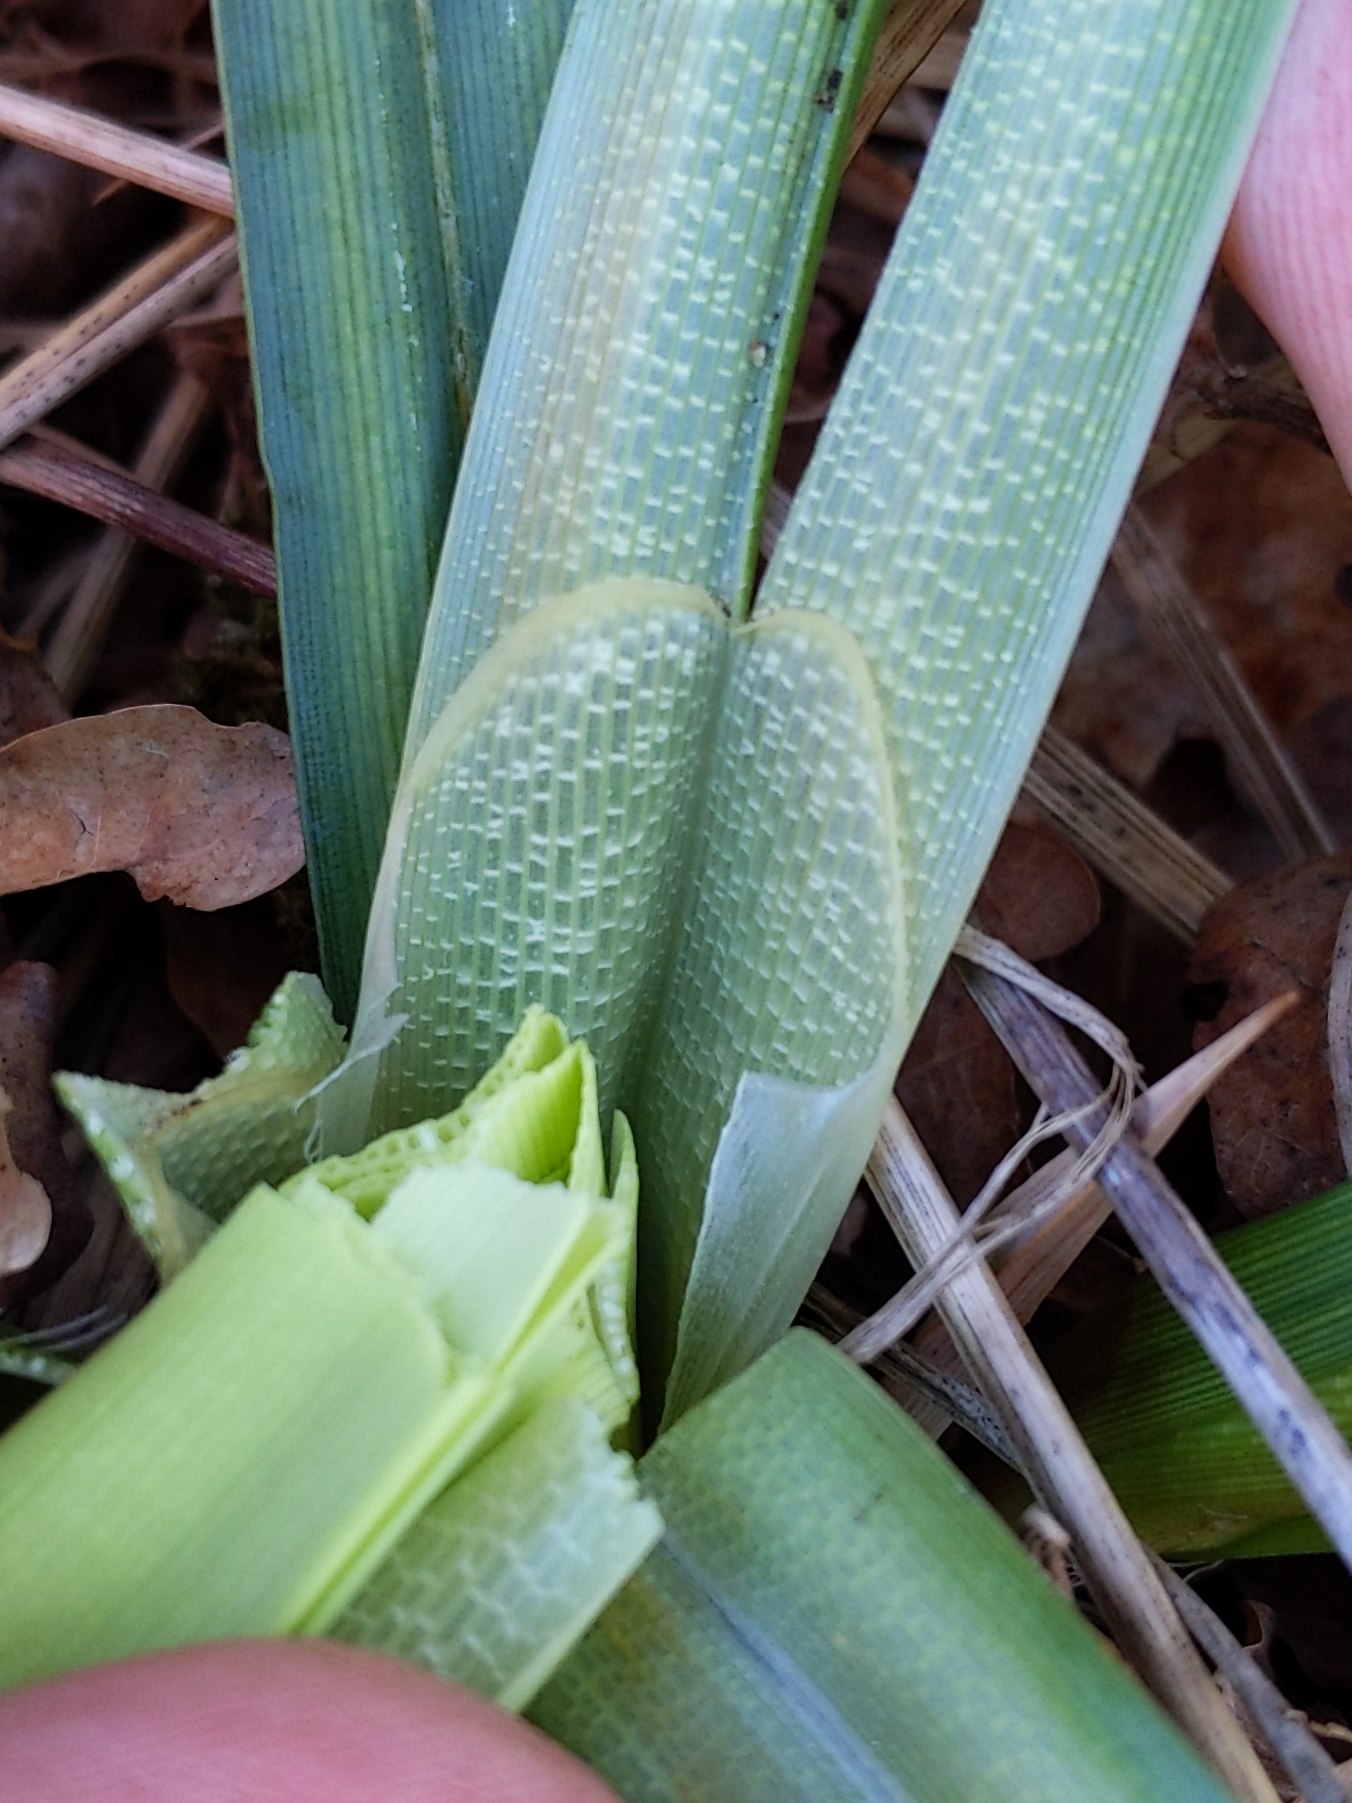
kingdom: Plantae
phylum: Tracheophyta
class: Liliopsida
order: Poales
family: Cyperaceae
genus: Carex
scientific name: Carex riparia
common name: Tykakset star
